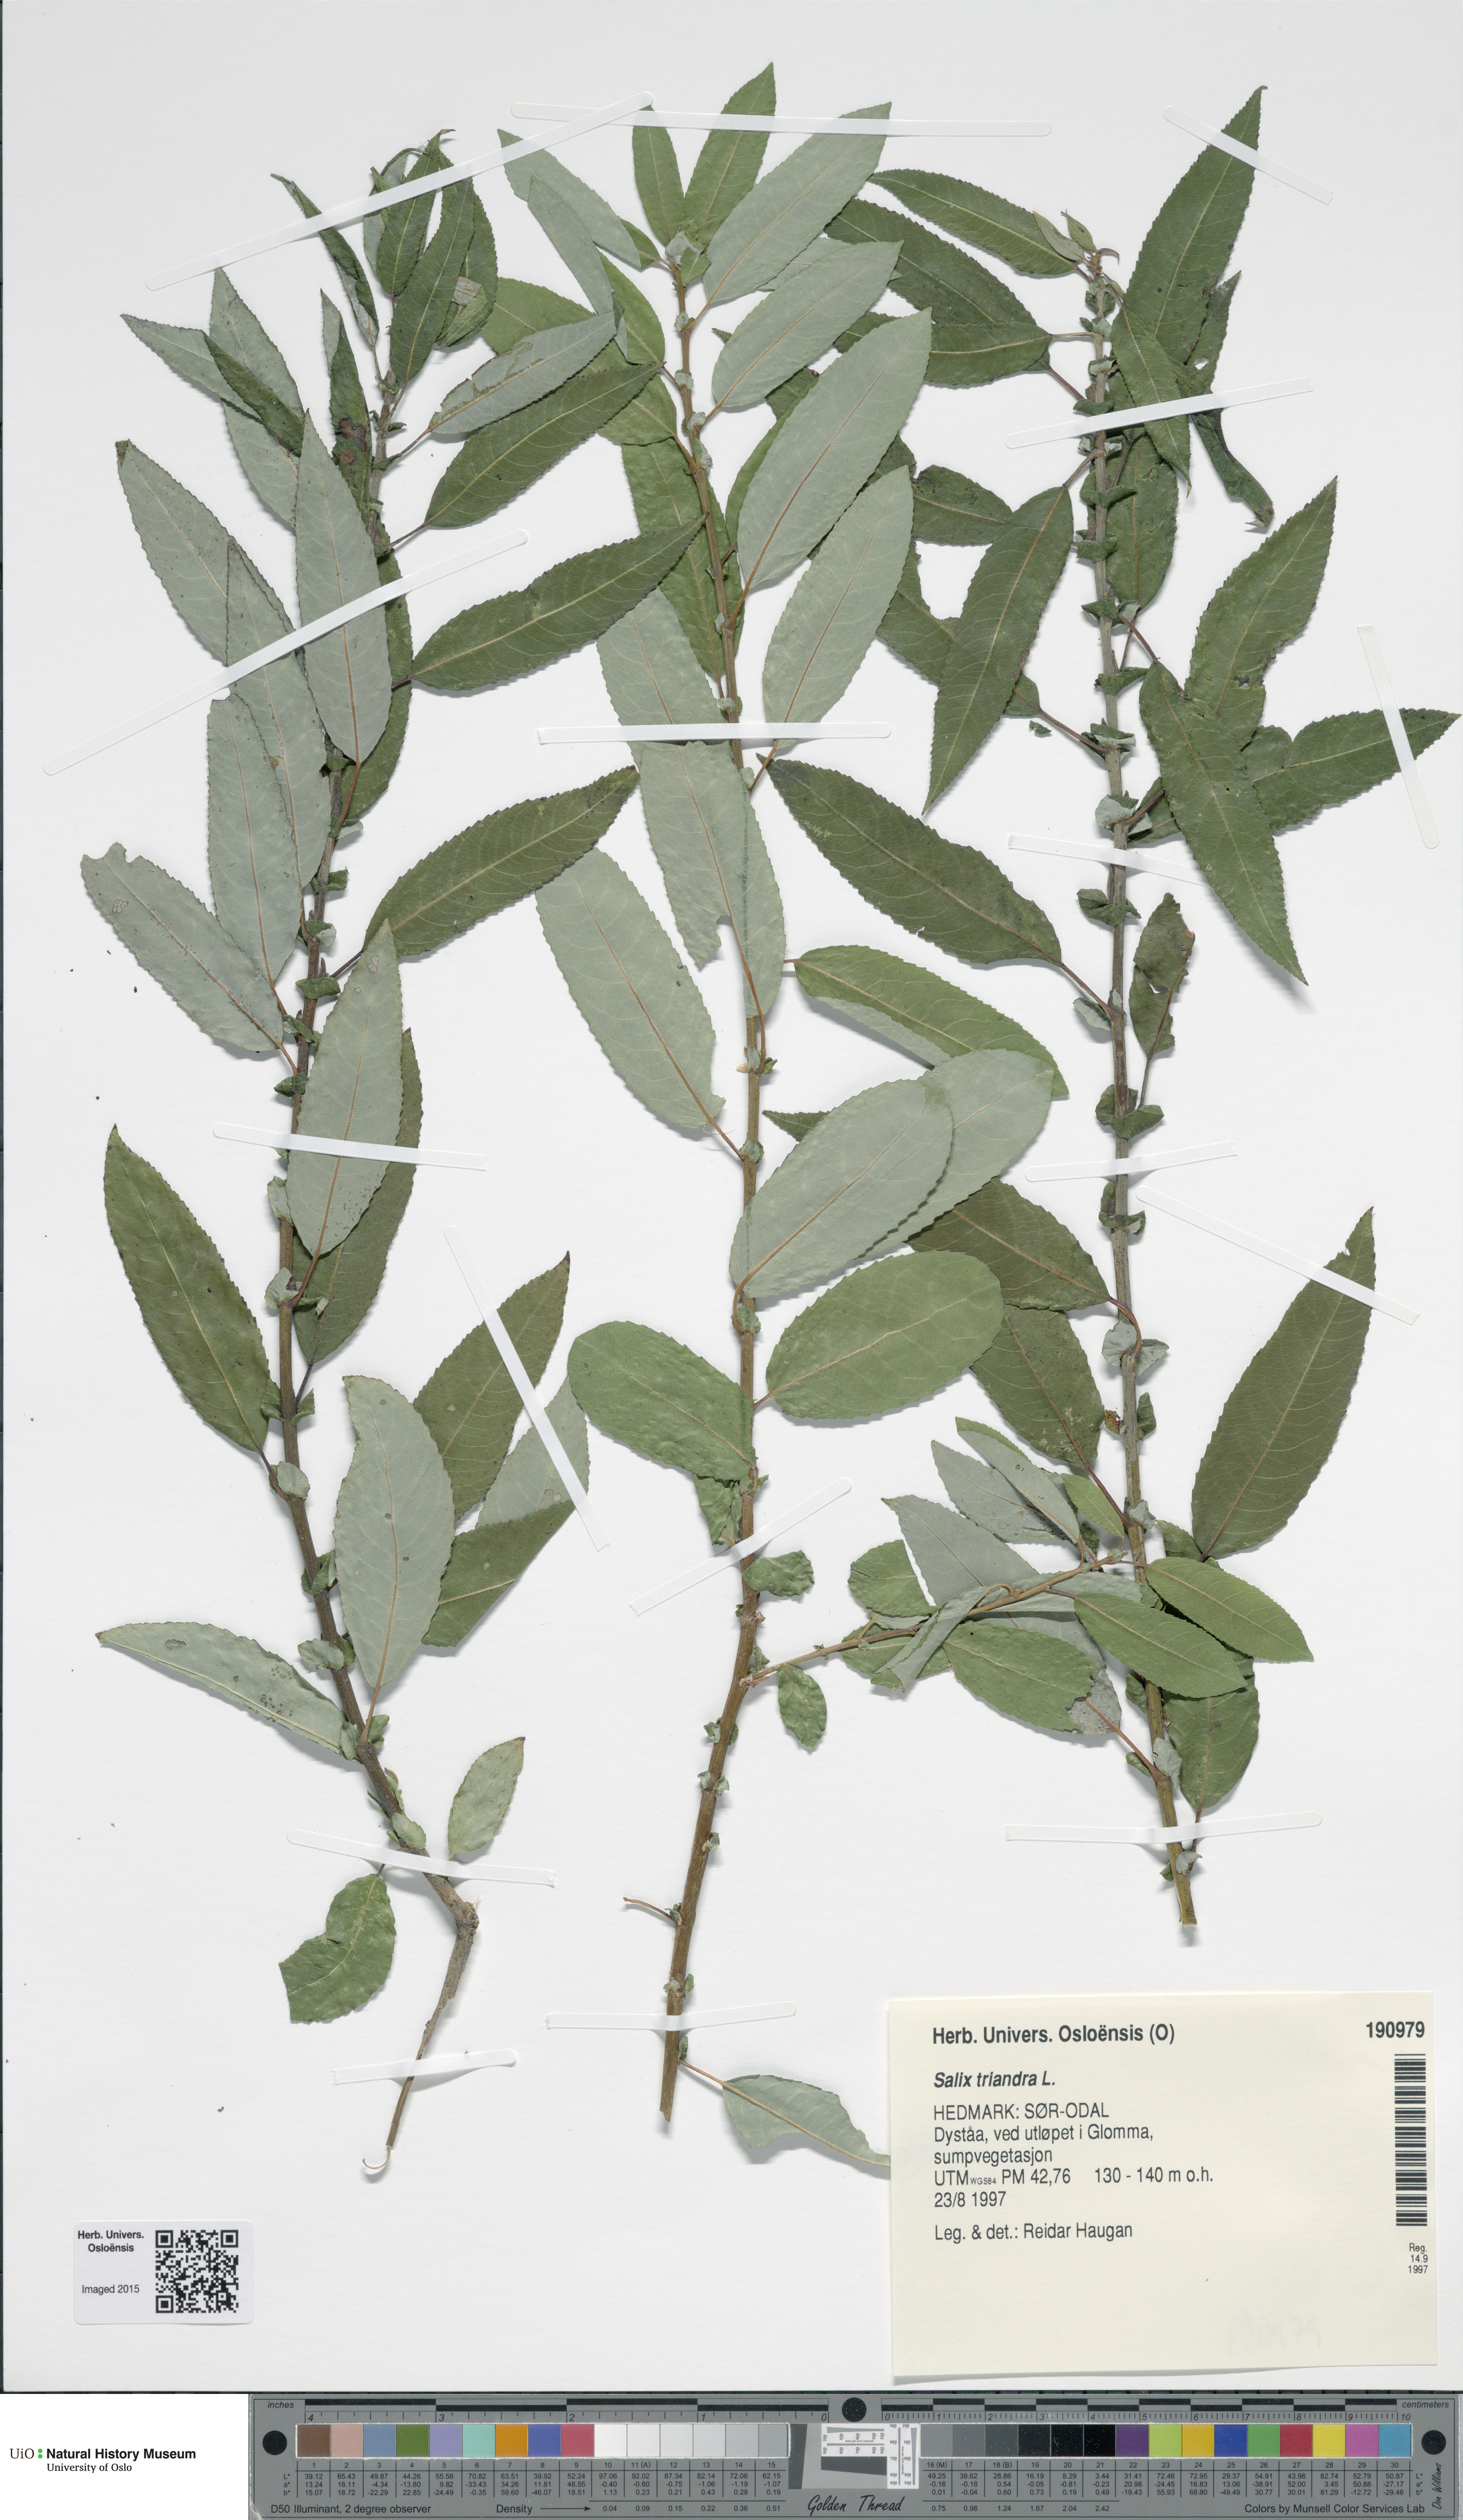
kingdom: Plantae
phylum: Tracheophyta
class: Magnoliopsida
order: Malpighiales
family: Salicaceae
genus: Salix
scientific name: Salix triandra
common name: Almond willow
